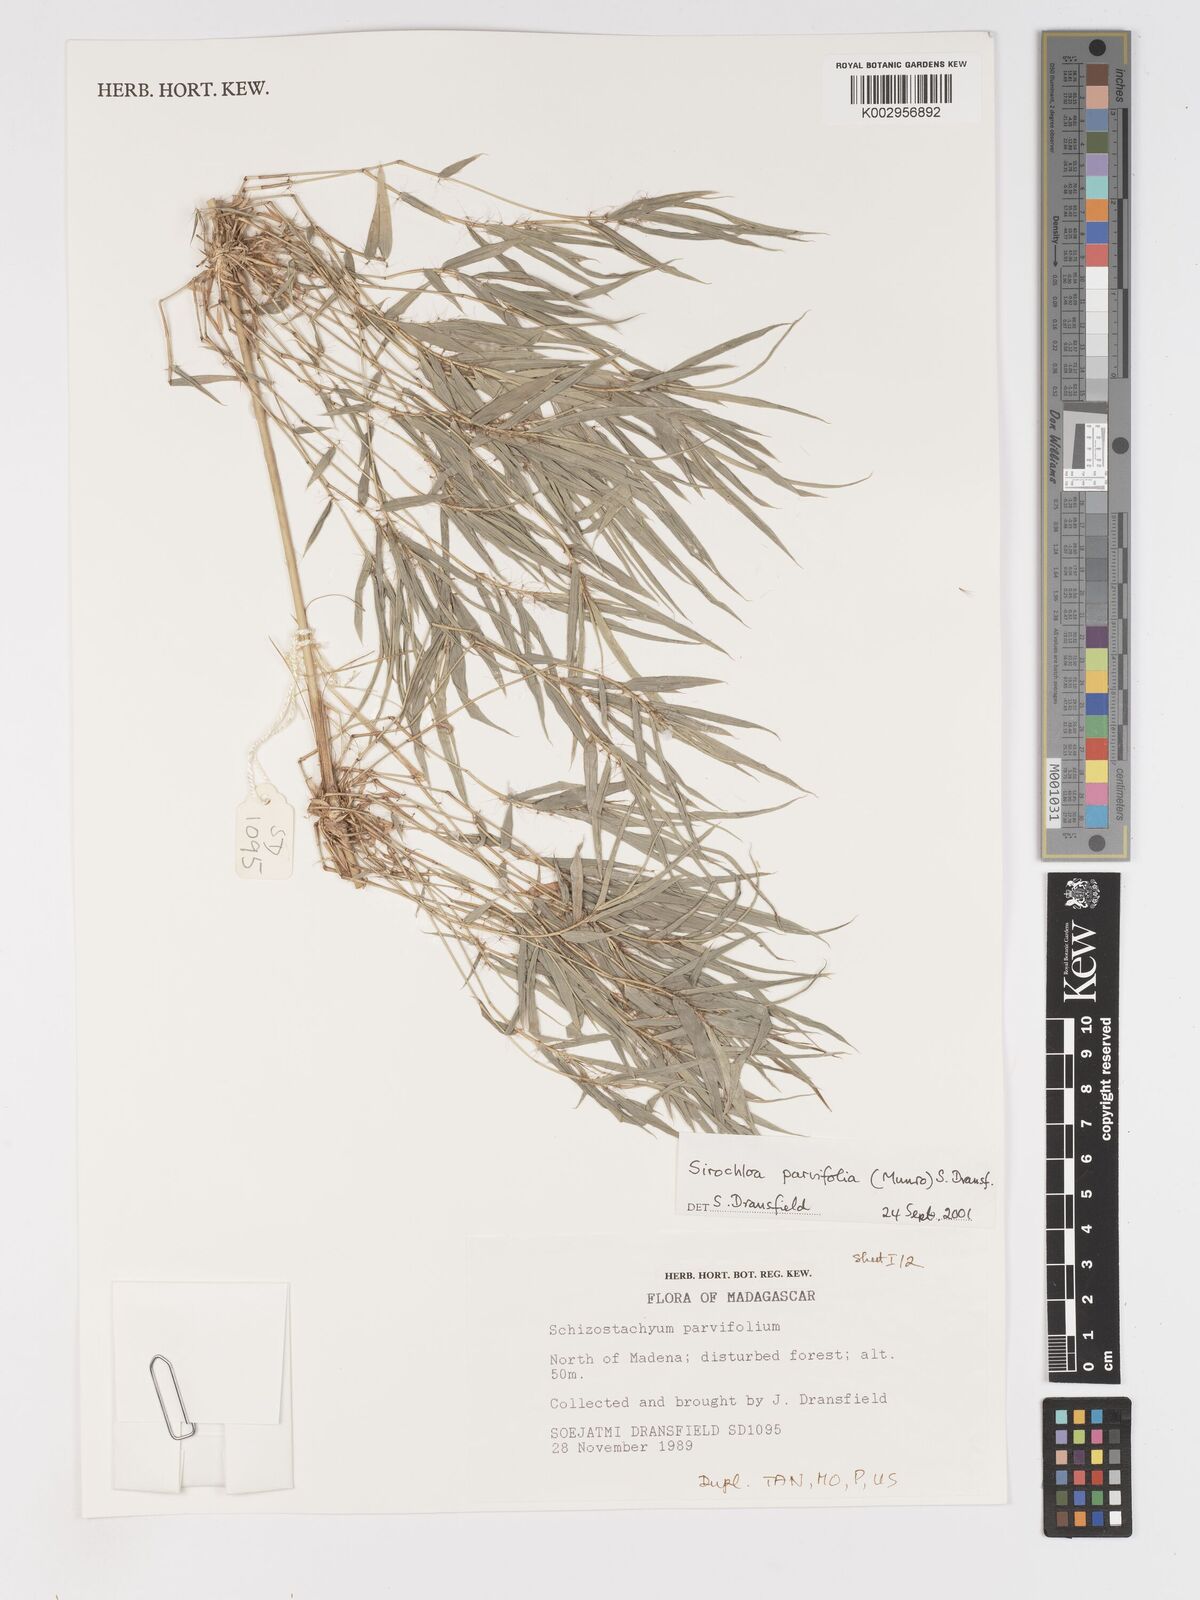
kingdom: Plantae
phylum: Tracheophyta
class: Liliopsida
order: Poales
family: Poaceae
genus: Sirochloa
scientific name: Sirochloa parvifolia
